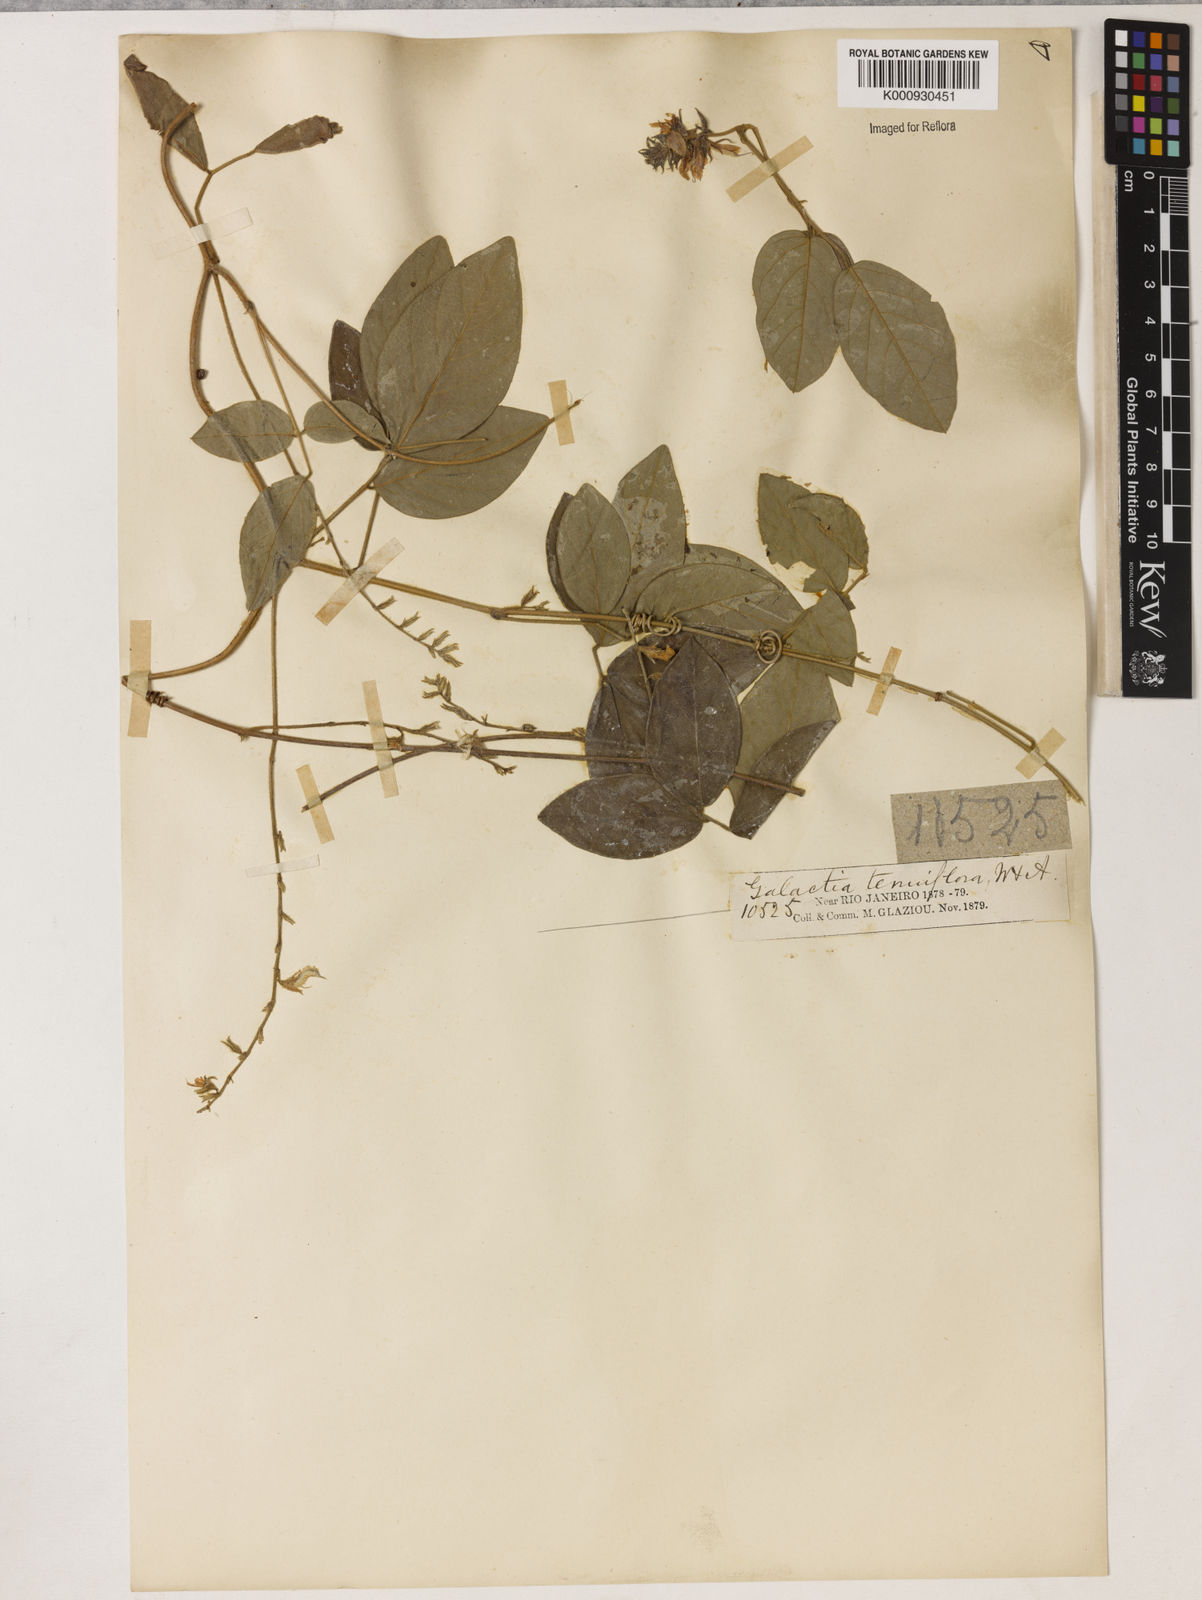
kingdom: Plantae
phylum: Tracheophyta
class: Magnoliopsida
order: Fabales
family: Fabaceae
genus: Galactia
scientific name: Galactia striata
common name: Florida hammock milkpea
